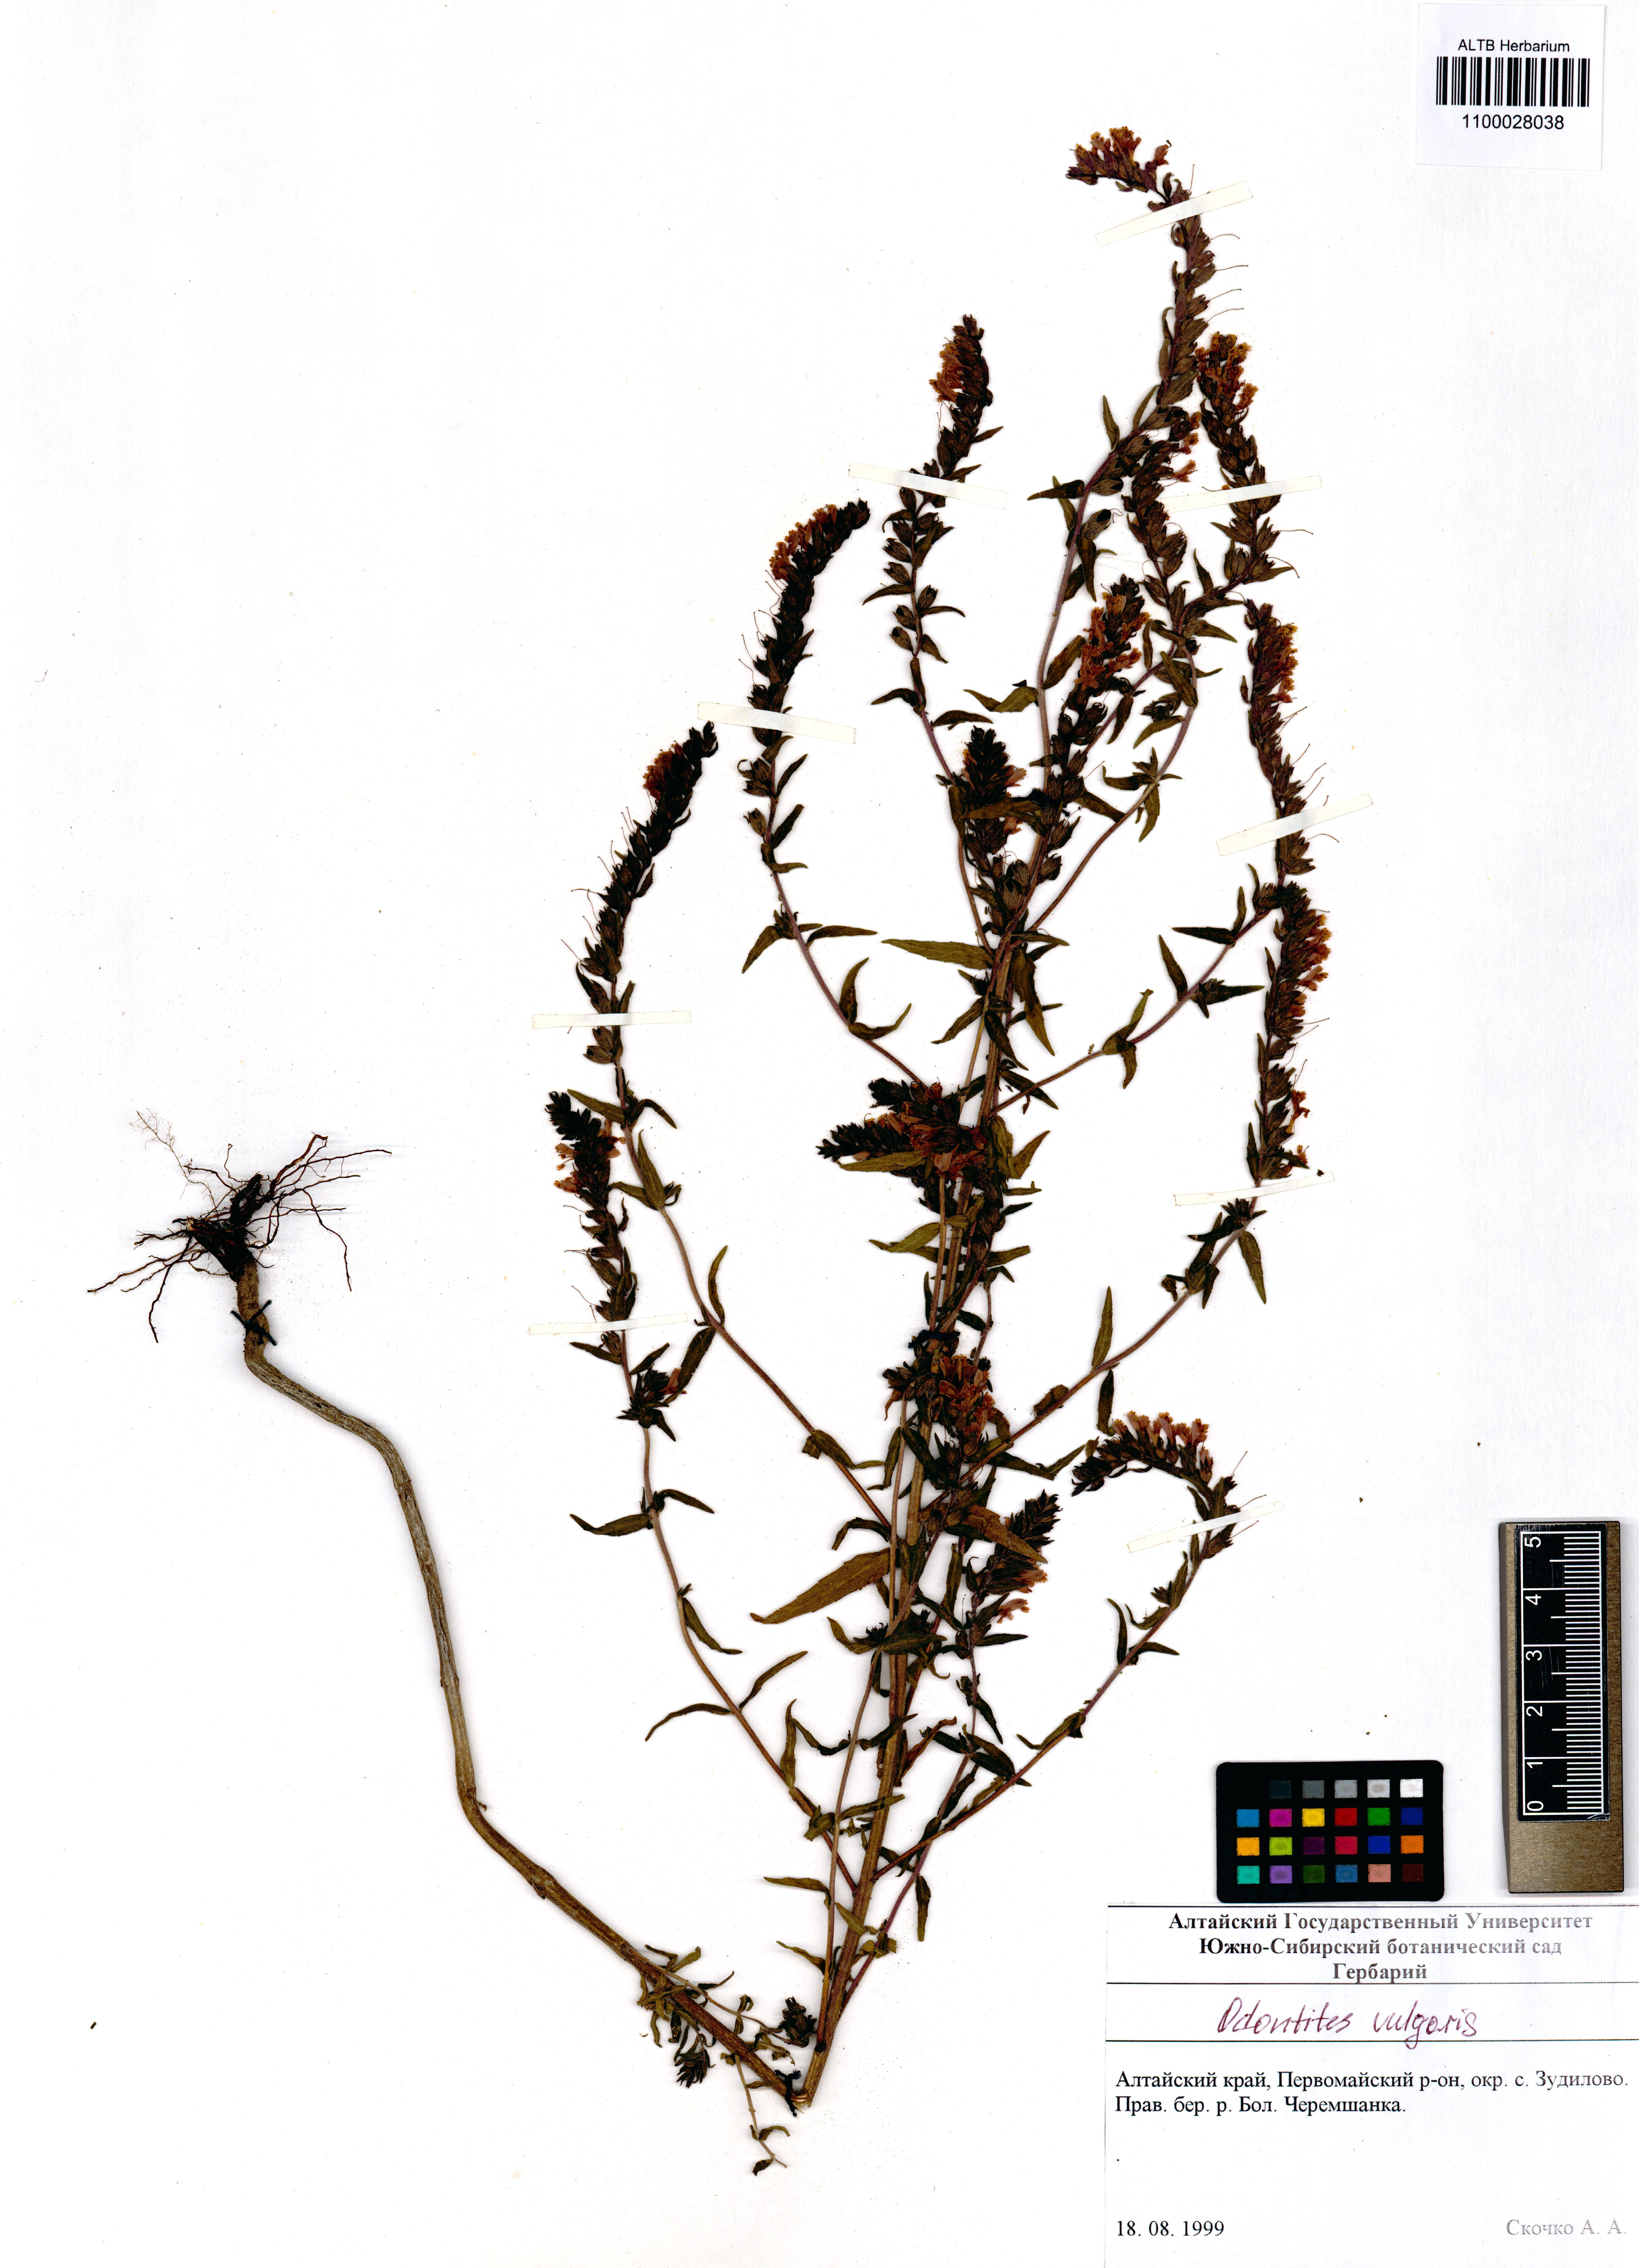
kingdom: Plantae
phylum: Tracheophyta
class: Magnoliopsida
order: Lamiales
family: Orobanchaceae
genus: Odontites
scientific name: Odontites vulgaris
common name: Broomrape
